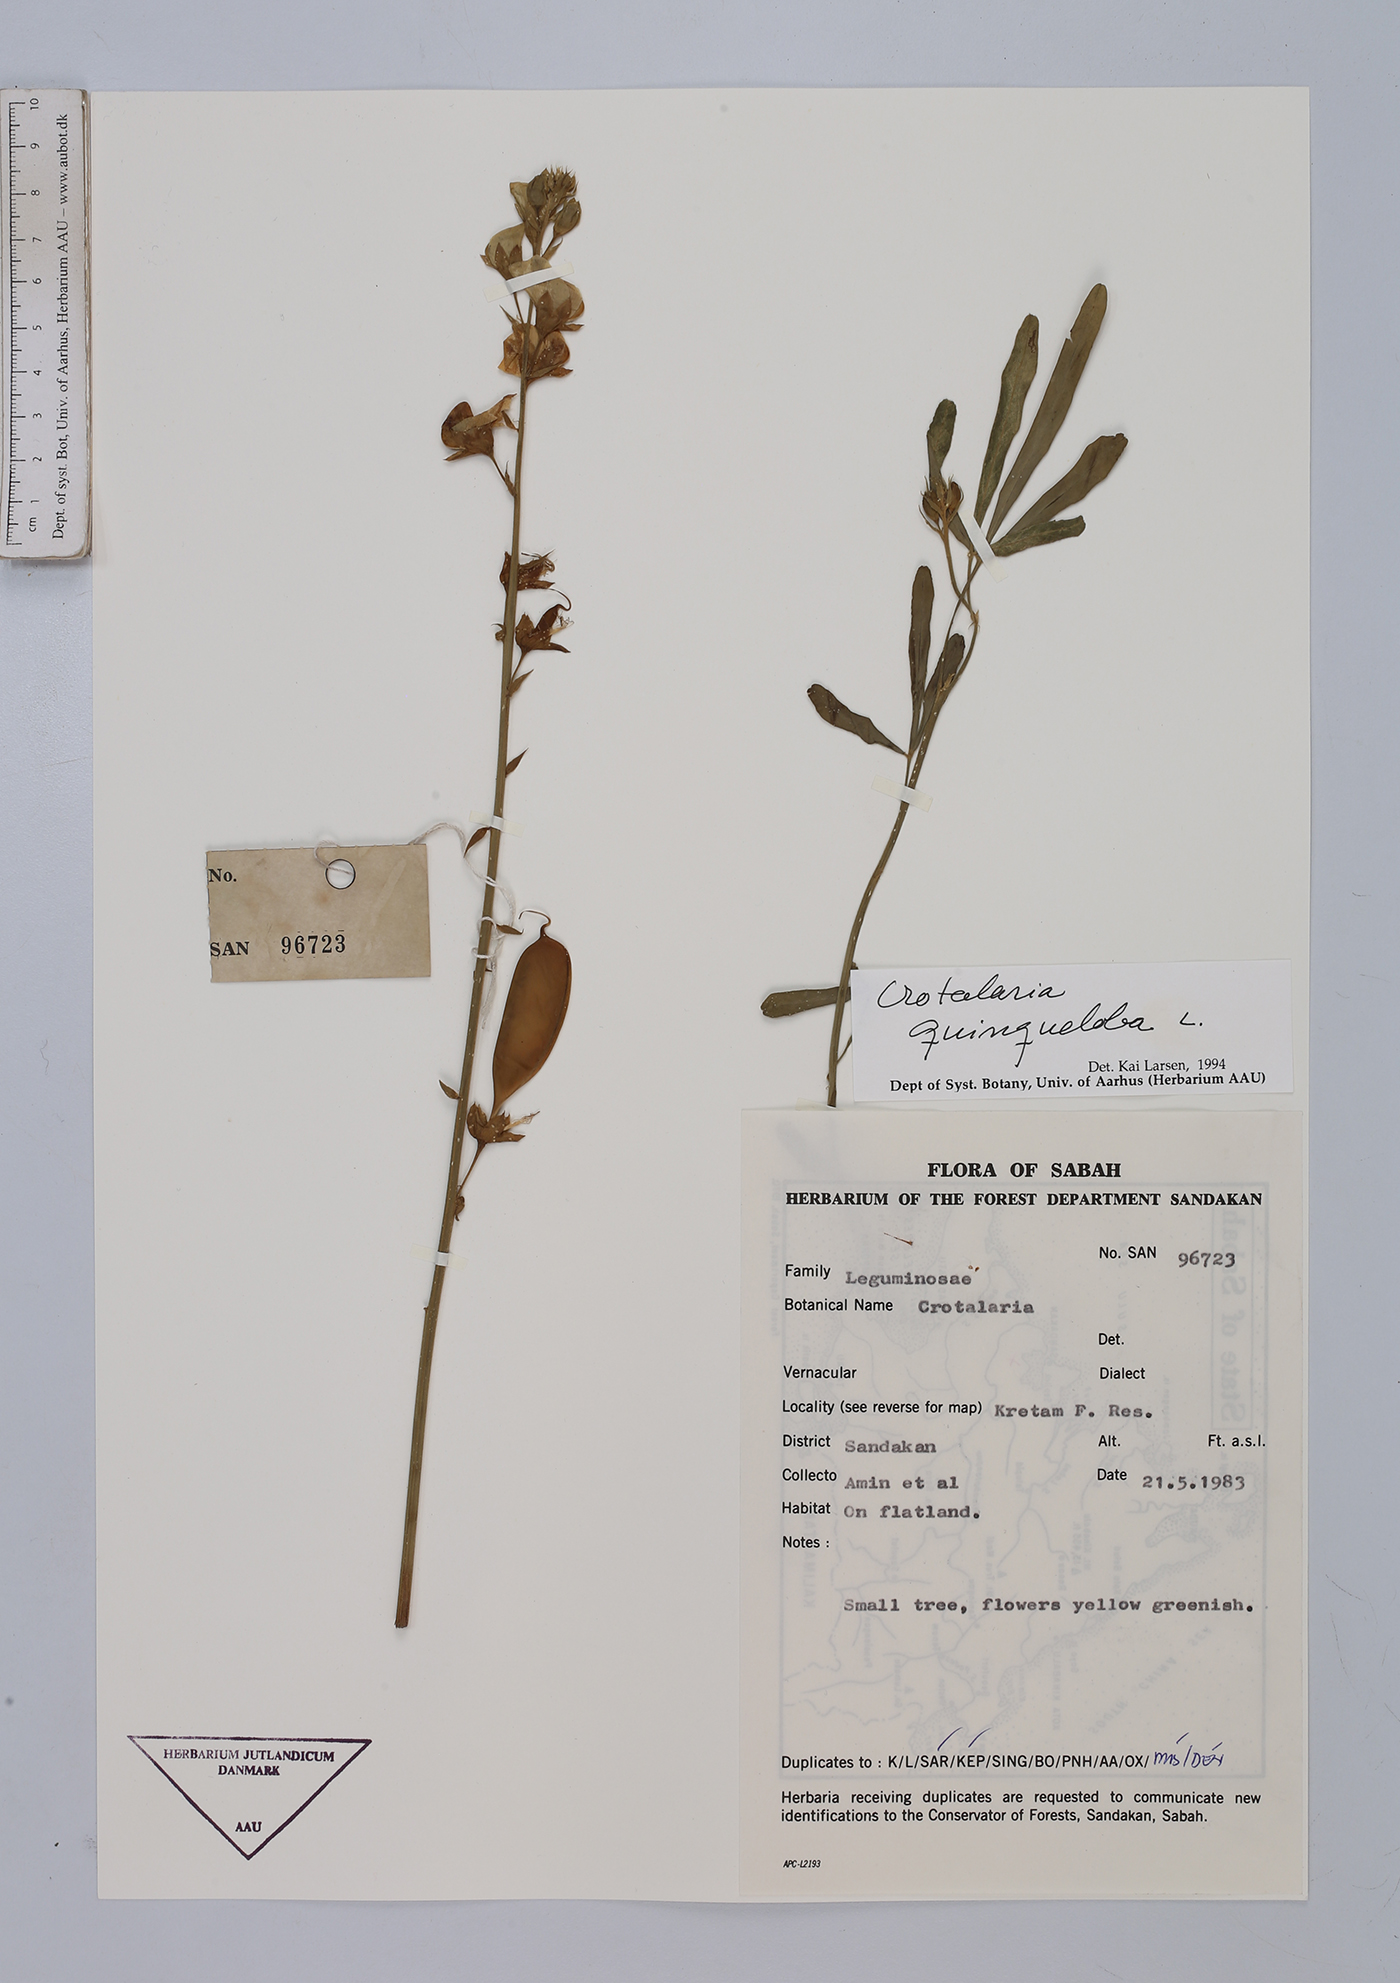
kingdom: Plantae
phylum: Tracheophyta
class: Magnoliopsida
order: Fabales
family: Fabaceae
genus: Crotalaria
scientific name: Crotalaria quinquefolia
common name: Five-leaf crotalaria
